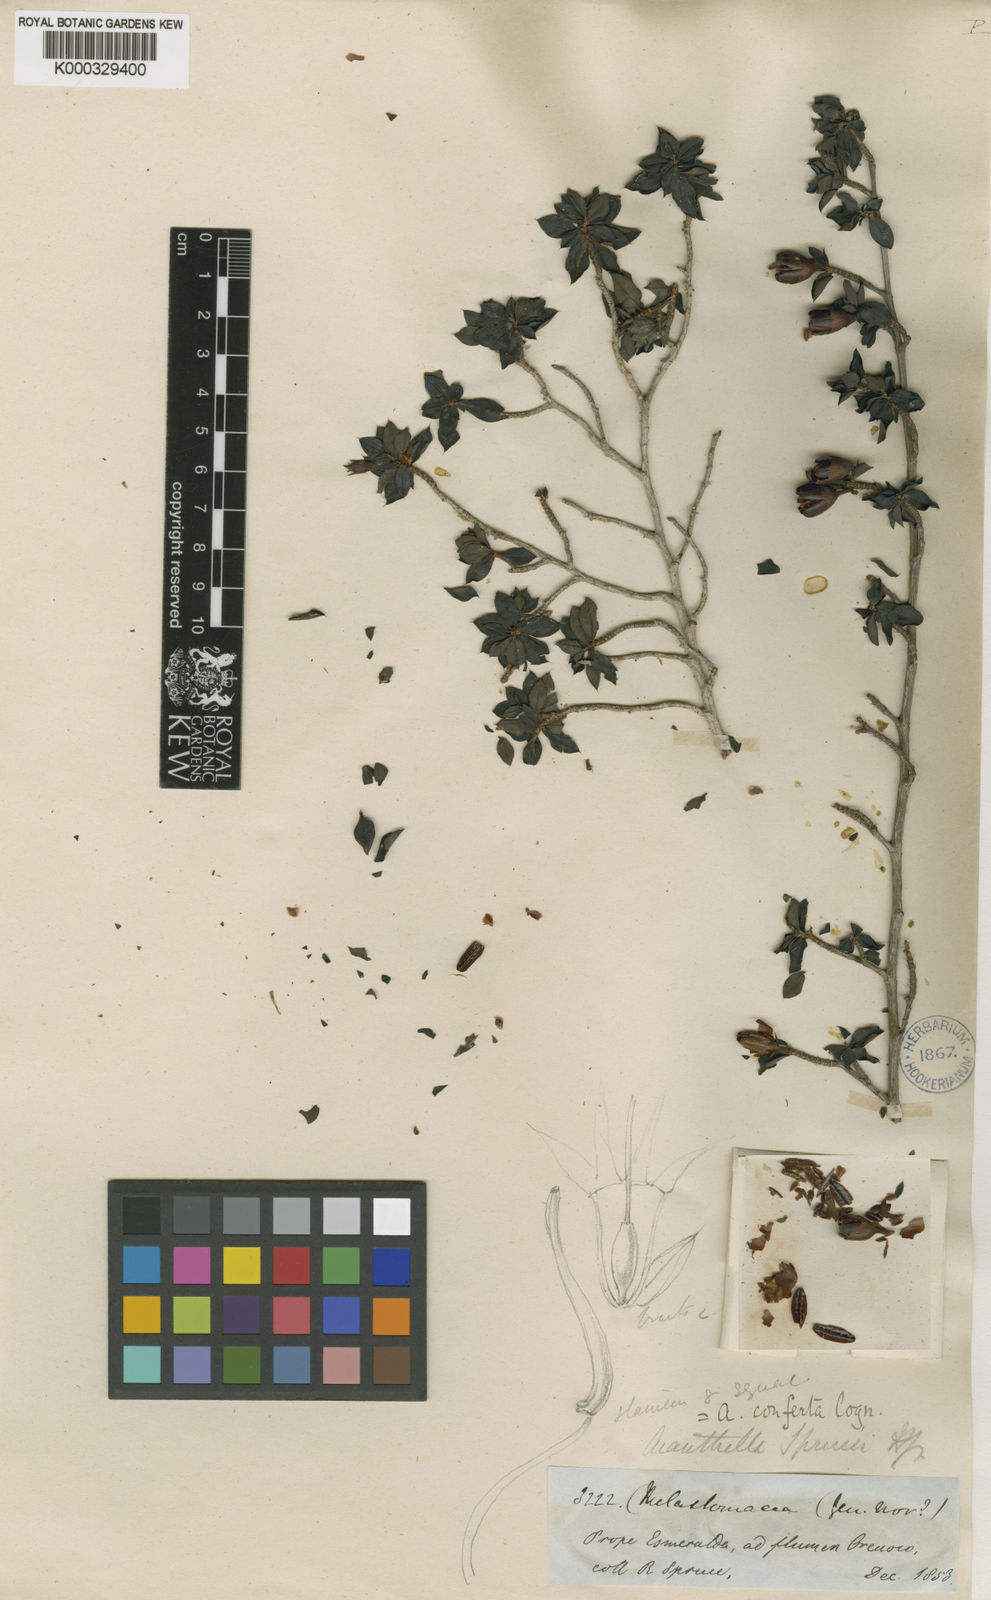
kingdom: Plantae
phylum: Tracheophyta
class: Magnoliopsida
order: Myrtales
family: Melastomataceae
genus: Acanthella
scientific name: Acanthella sprucei
